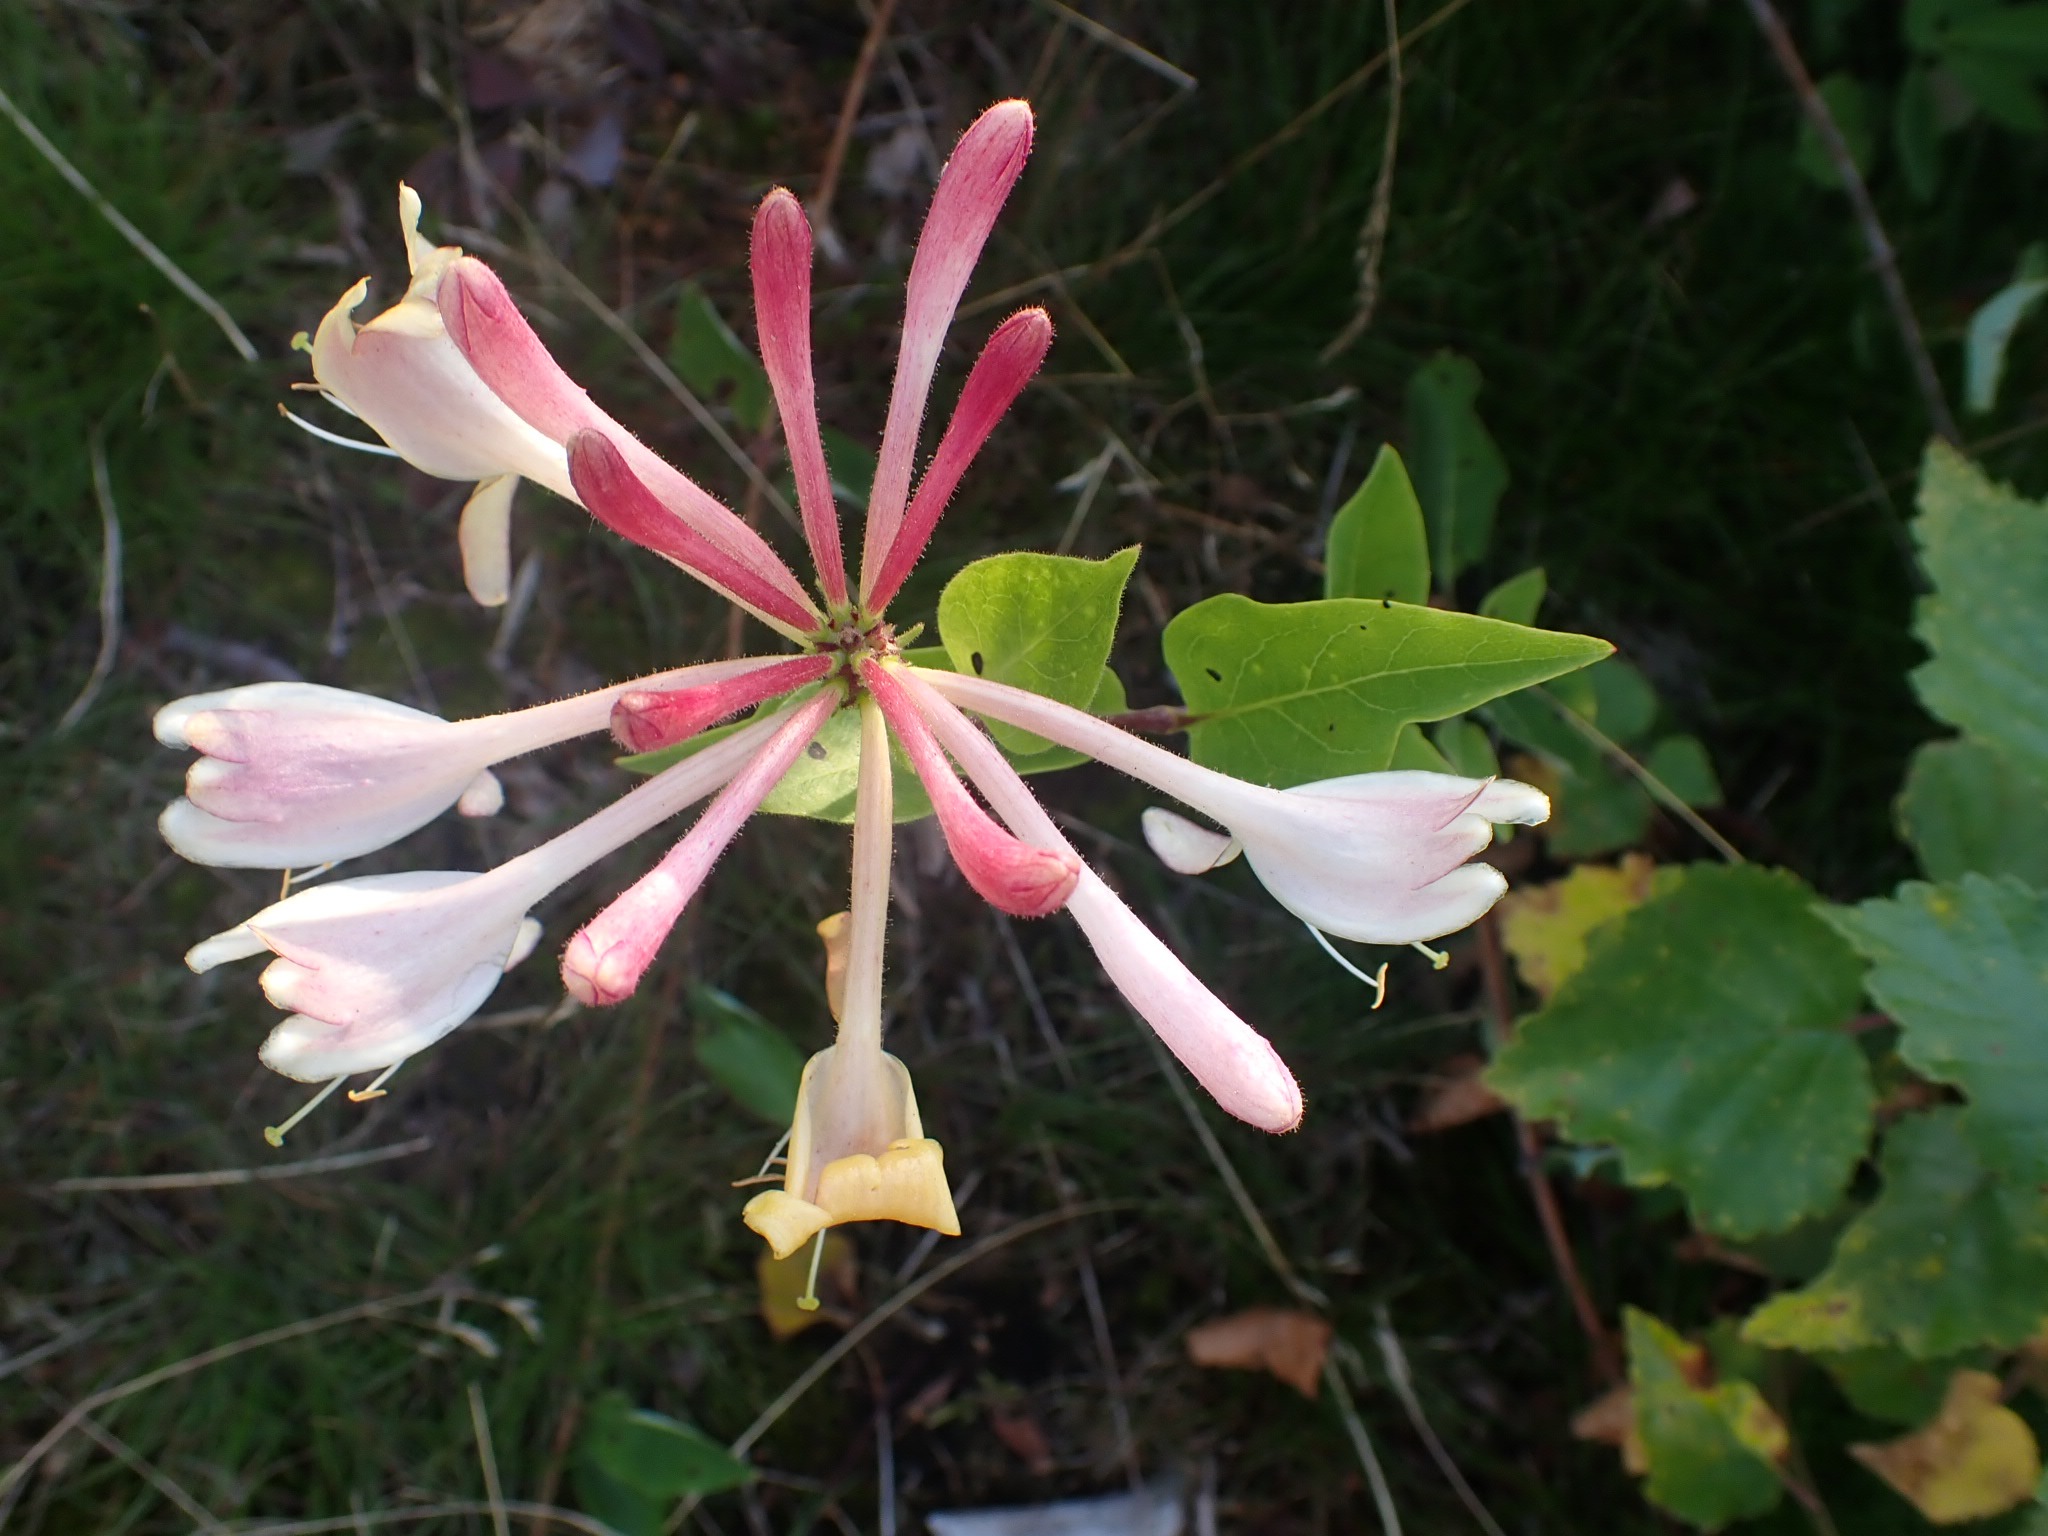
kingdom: Plantae
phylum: Tracheophyta
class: Magnoliopsida
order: Dipsacales
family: Caprifoliaceae
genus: Lonicera
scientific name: Lonicera periclymenum
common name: Almindelig gedeblad
